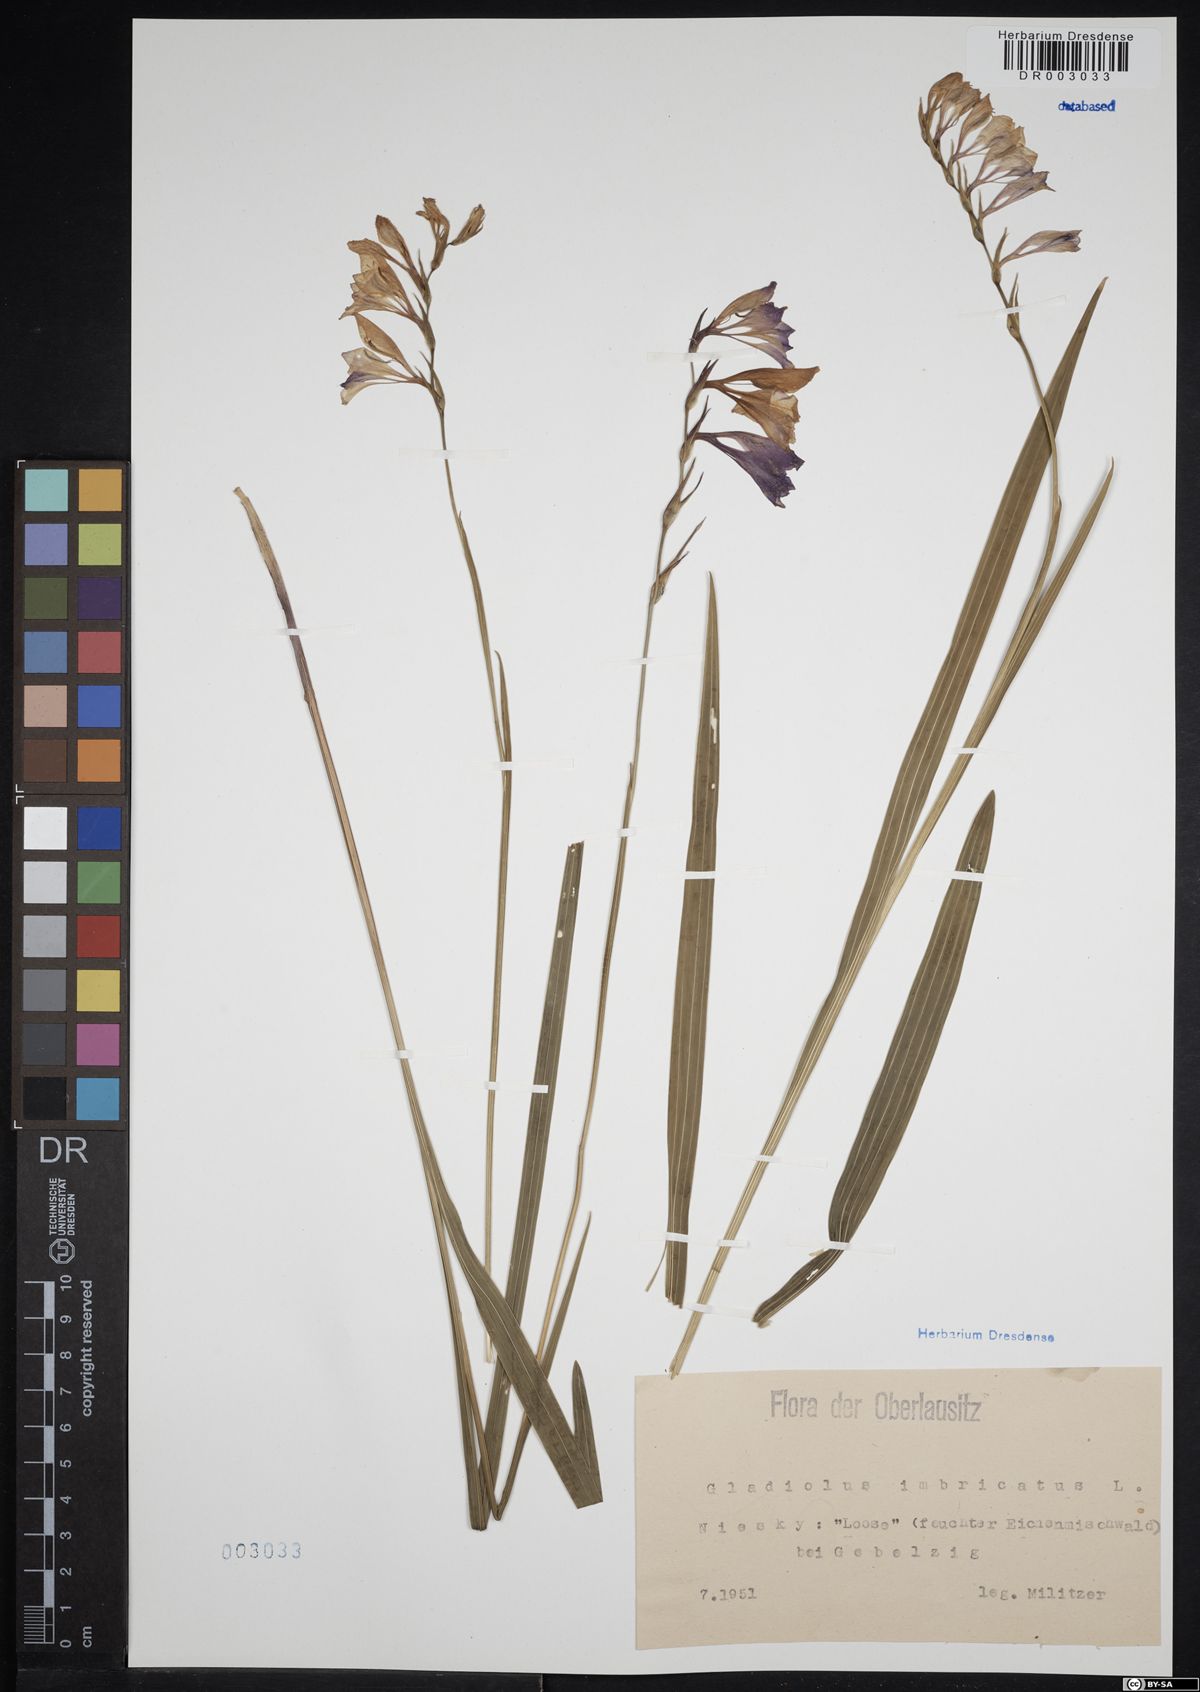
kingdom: Plantae
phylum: Tracheophyta
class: Liliopsida
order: Asparagales
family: Iridaceae
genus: Gladiolus
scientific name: Gladiolus imbricatus
